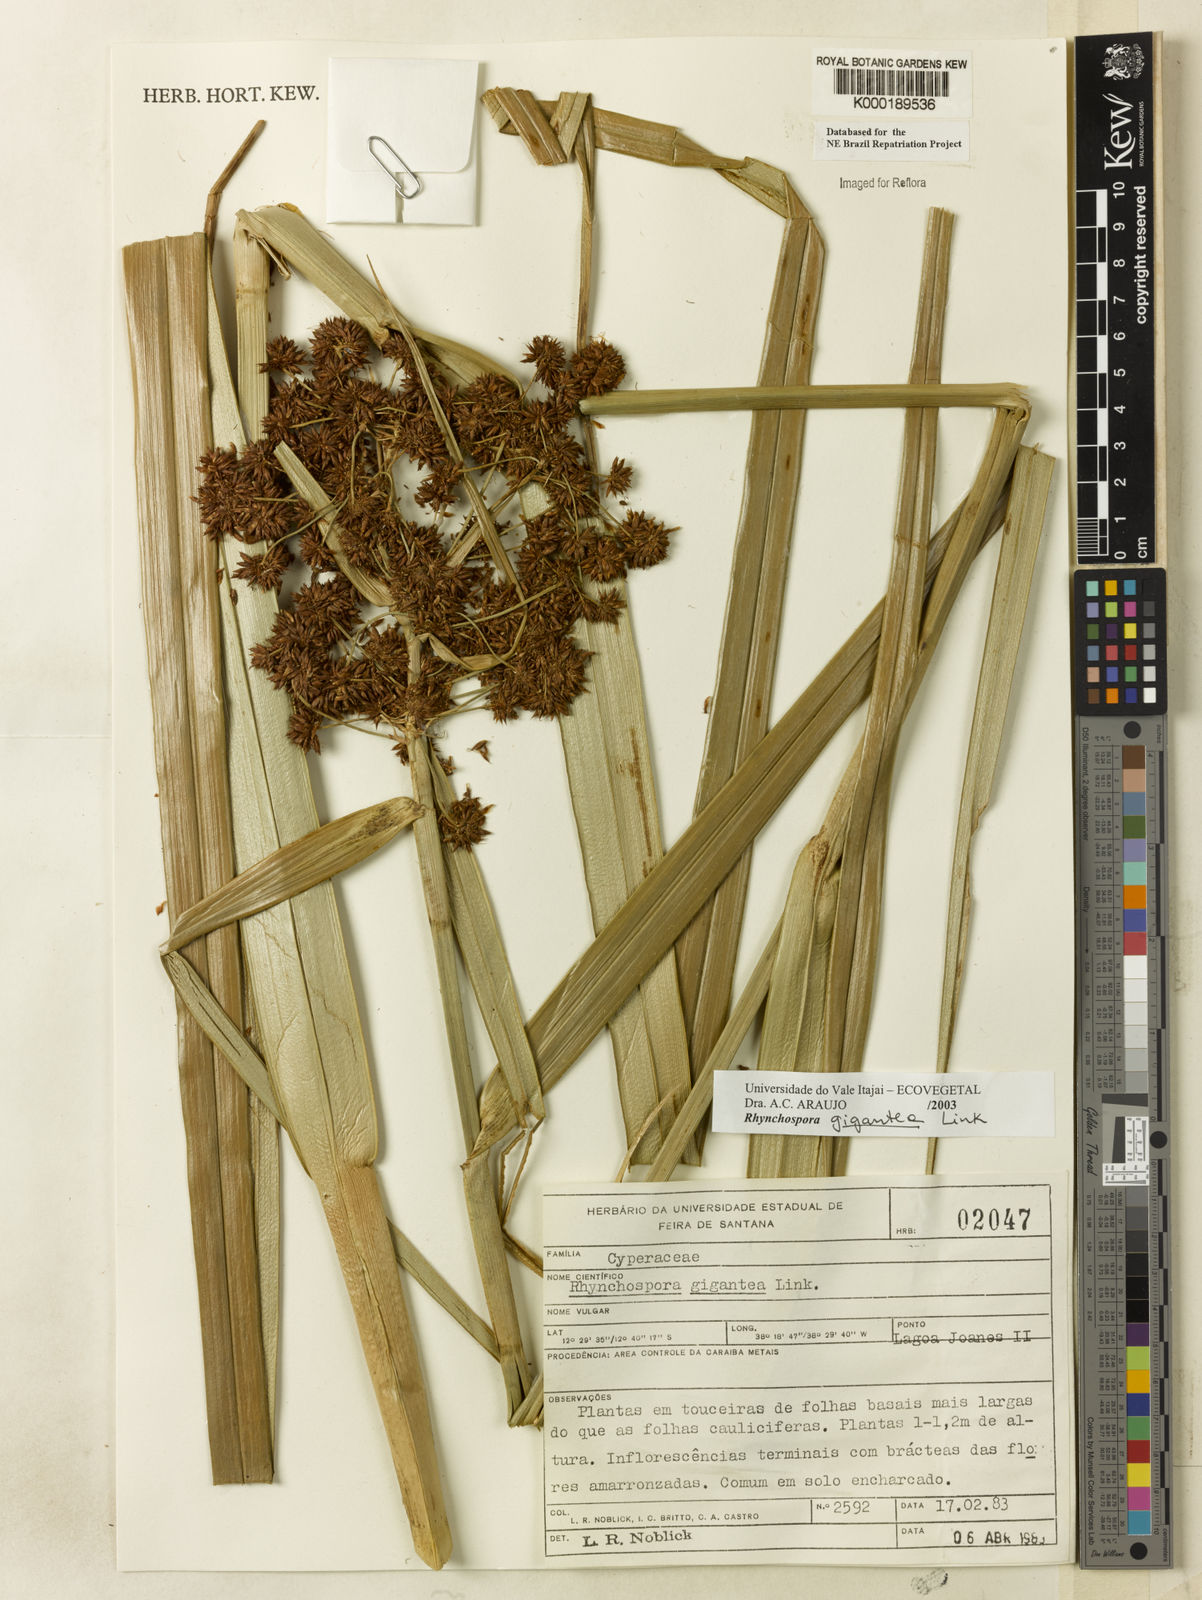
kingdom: Plantae
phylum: Tracheophyta
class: Liliopsida
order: Poales
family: Cyperaceae
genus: Rhynchospora
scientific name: Rhynchospora gigantea
